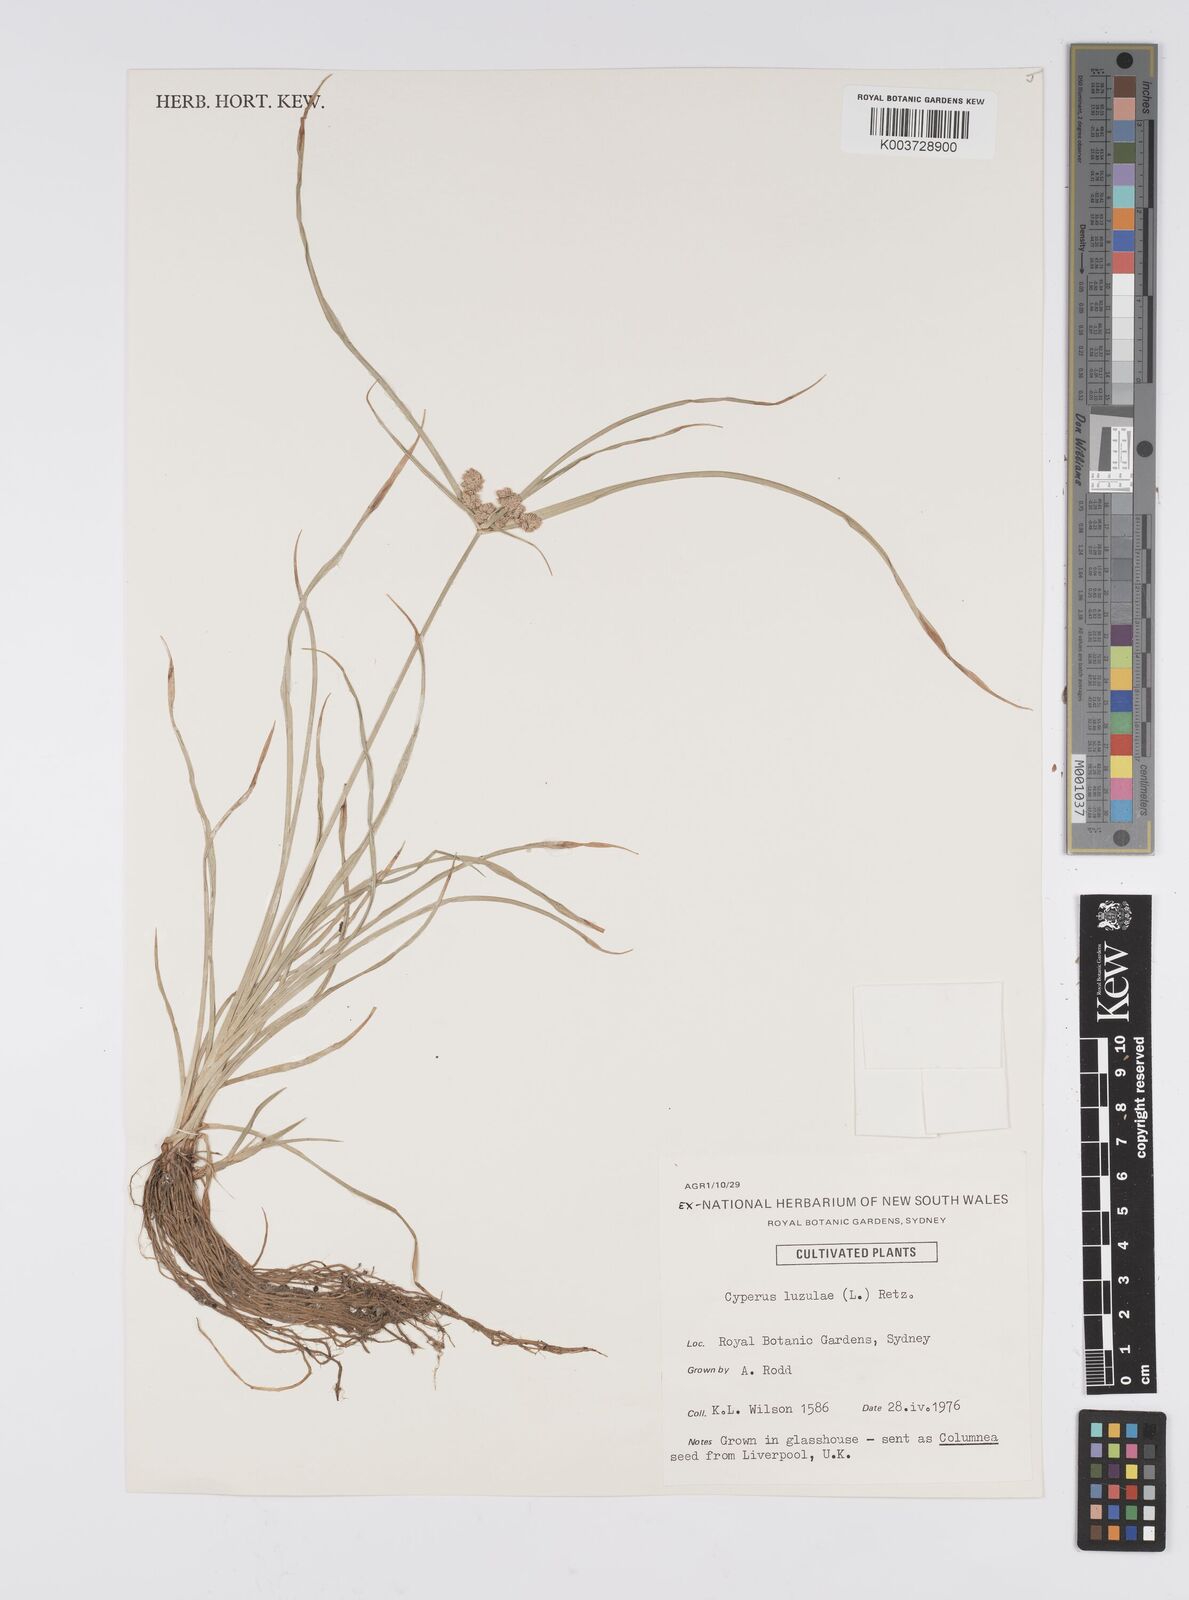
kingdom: Plantae
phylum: Tracheophyta
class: Liliopsida
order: Poales
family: Cyperaceae
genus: Cyperus
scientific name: Cyperus luzulae
